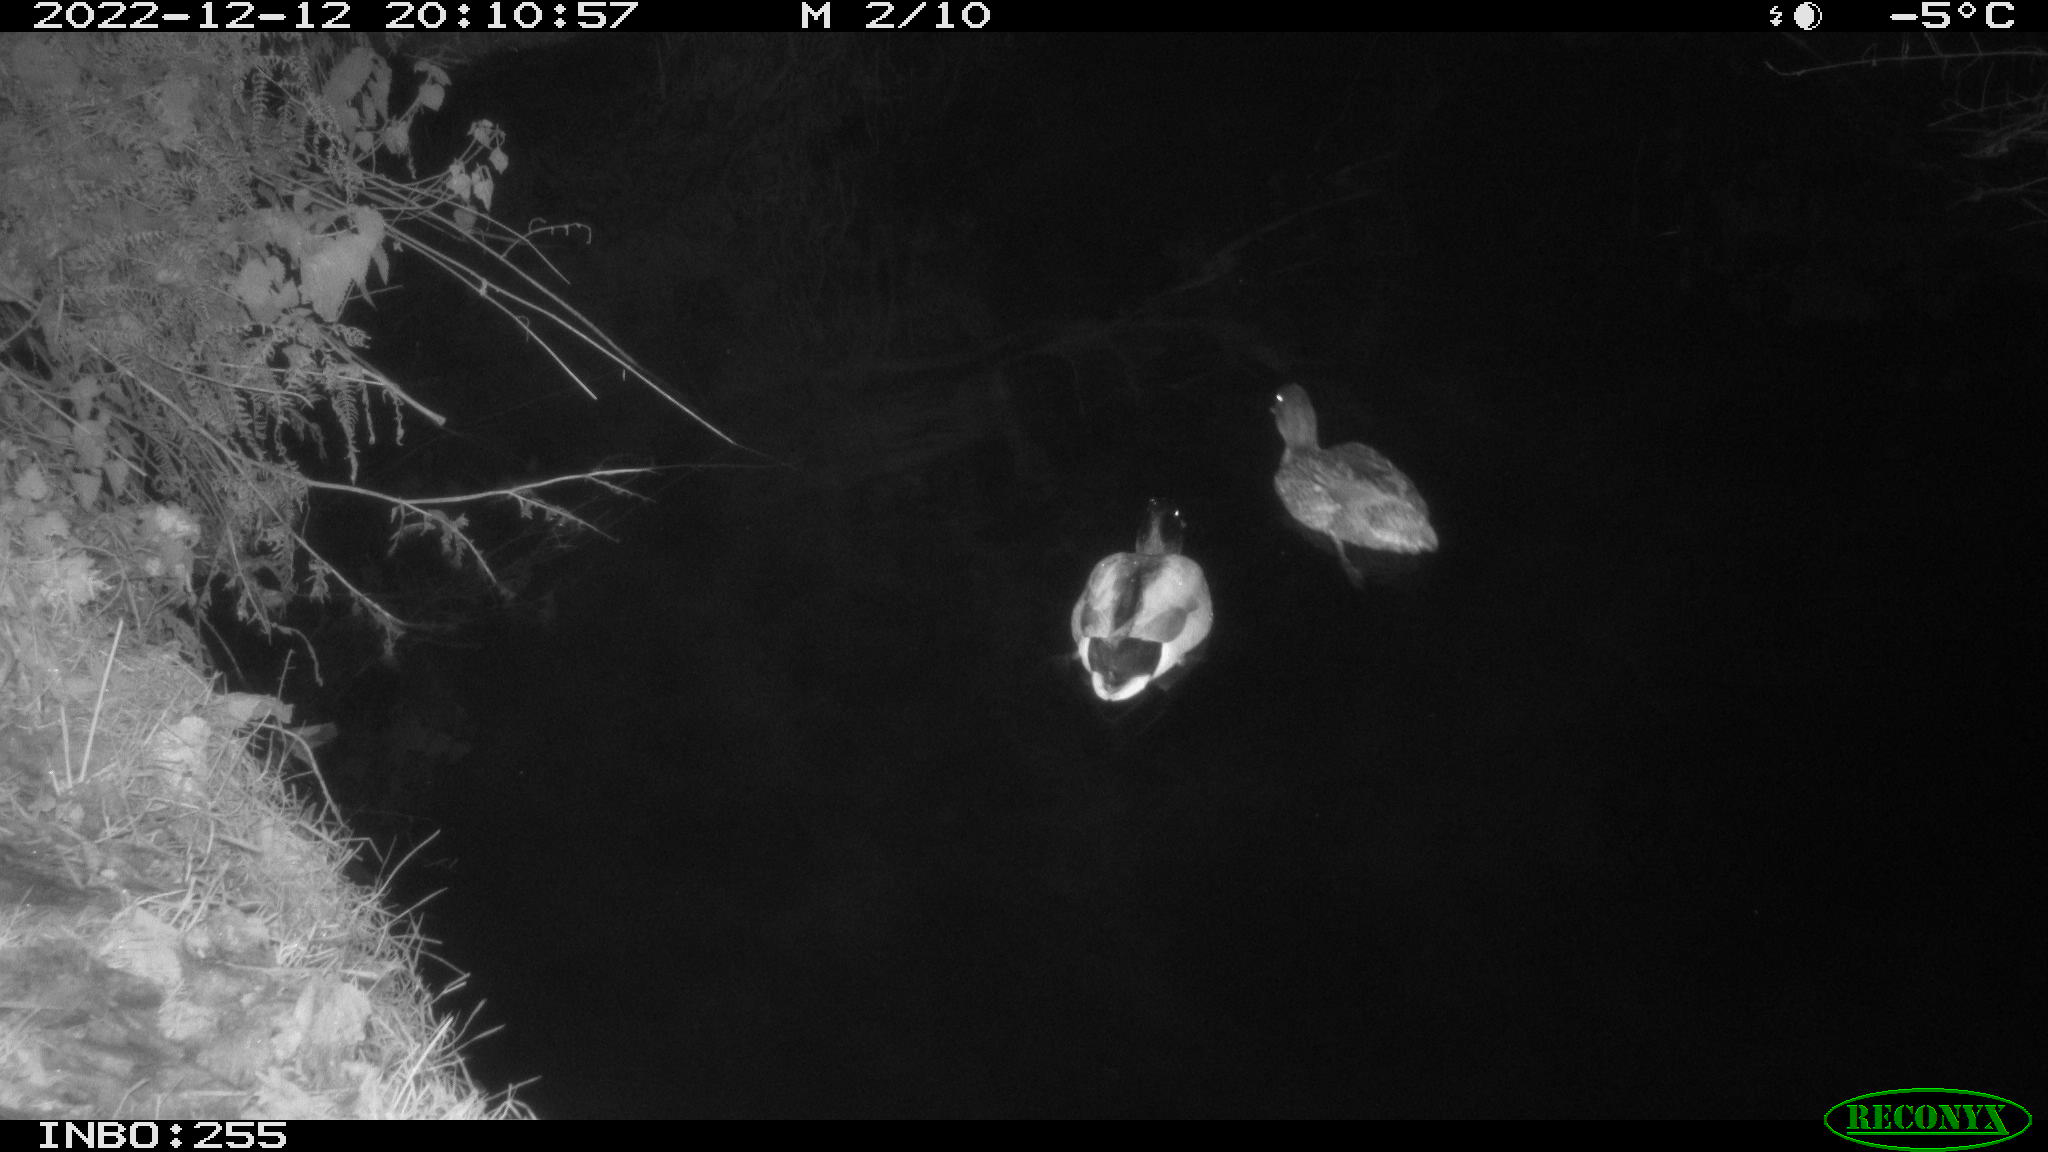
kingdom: Animalia
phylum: Chordata
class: Aves
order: Anseriformes
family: Anatidae
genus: Anas
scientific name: Anas
